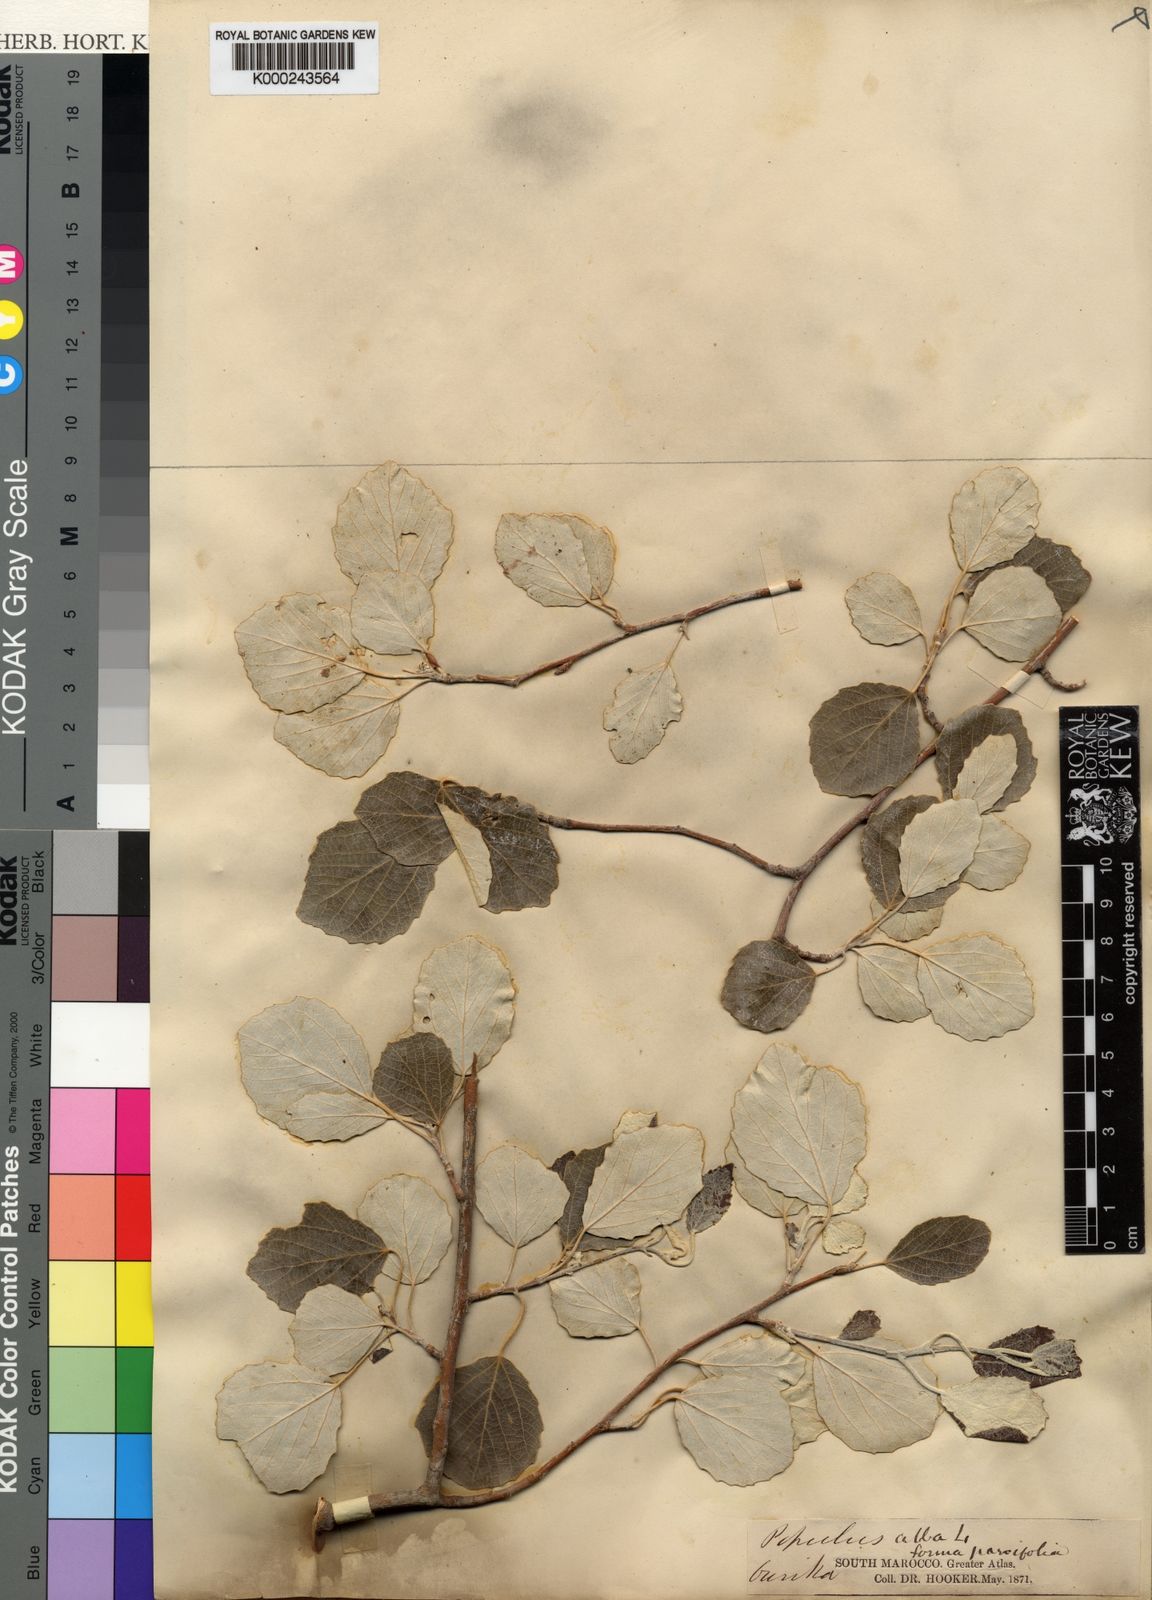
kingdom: Plantae
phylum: Tracheophyta
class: Magnoliopsida
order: Malpighiales
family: Salicaceae
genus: Populus
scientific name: Populus alba
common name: White poplar
